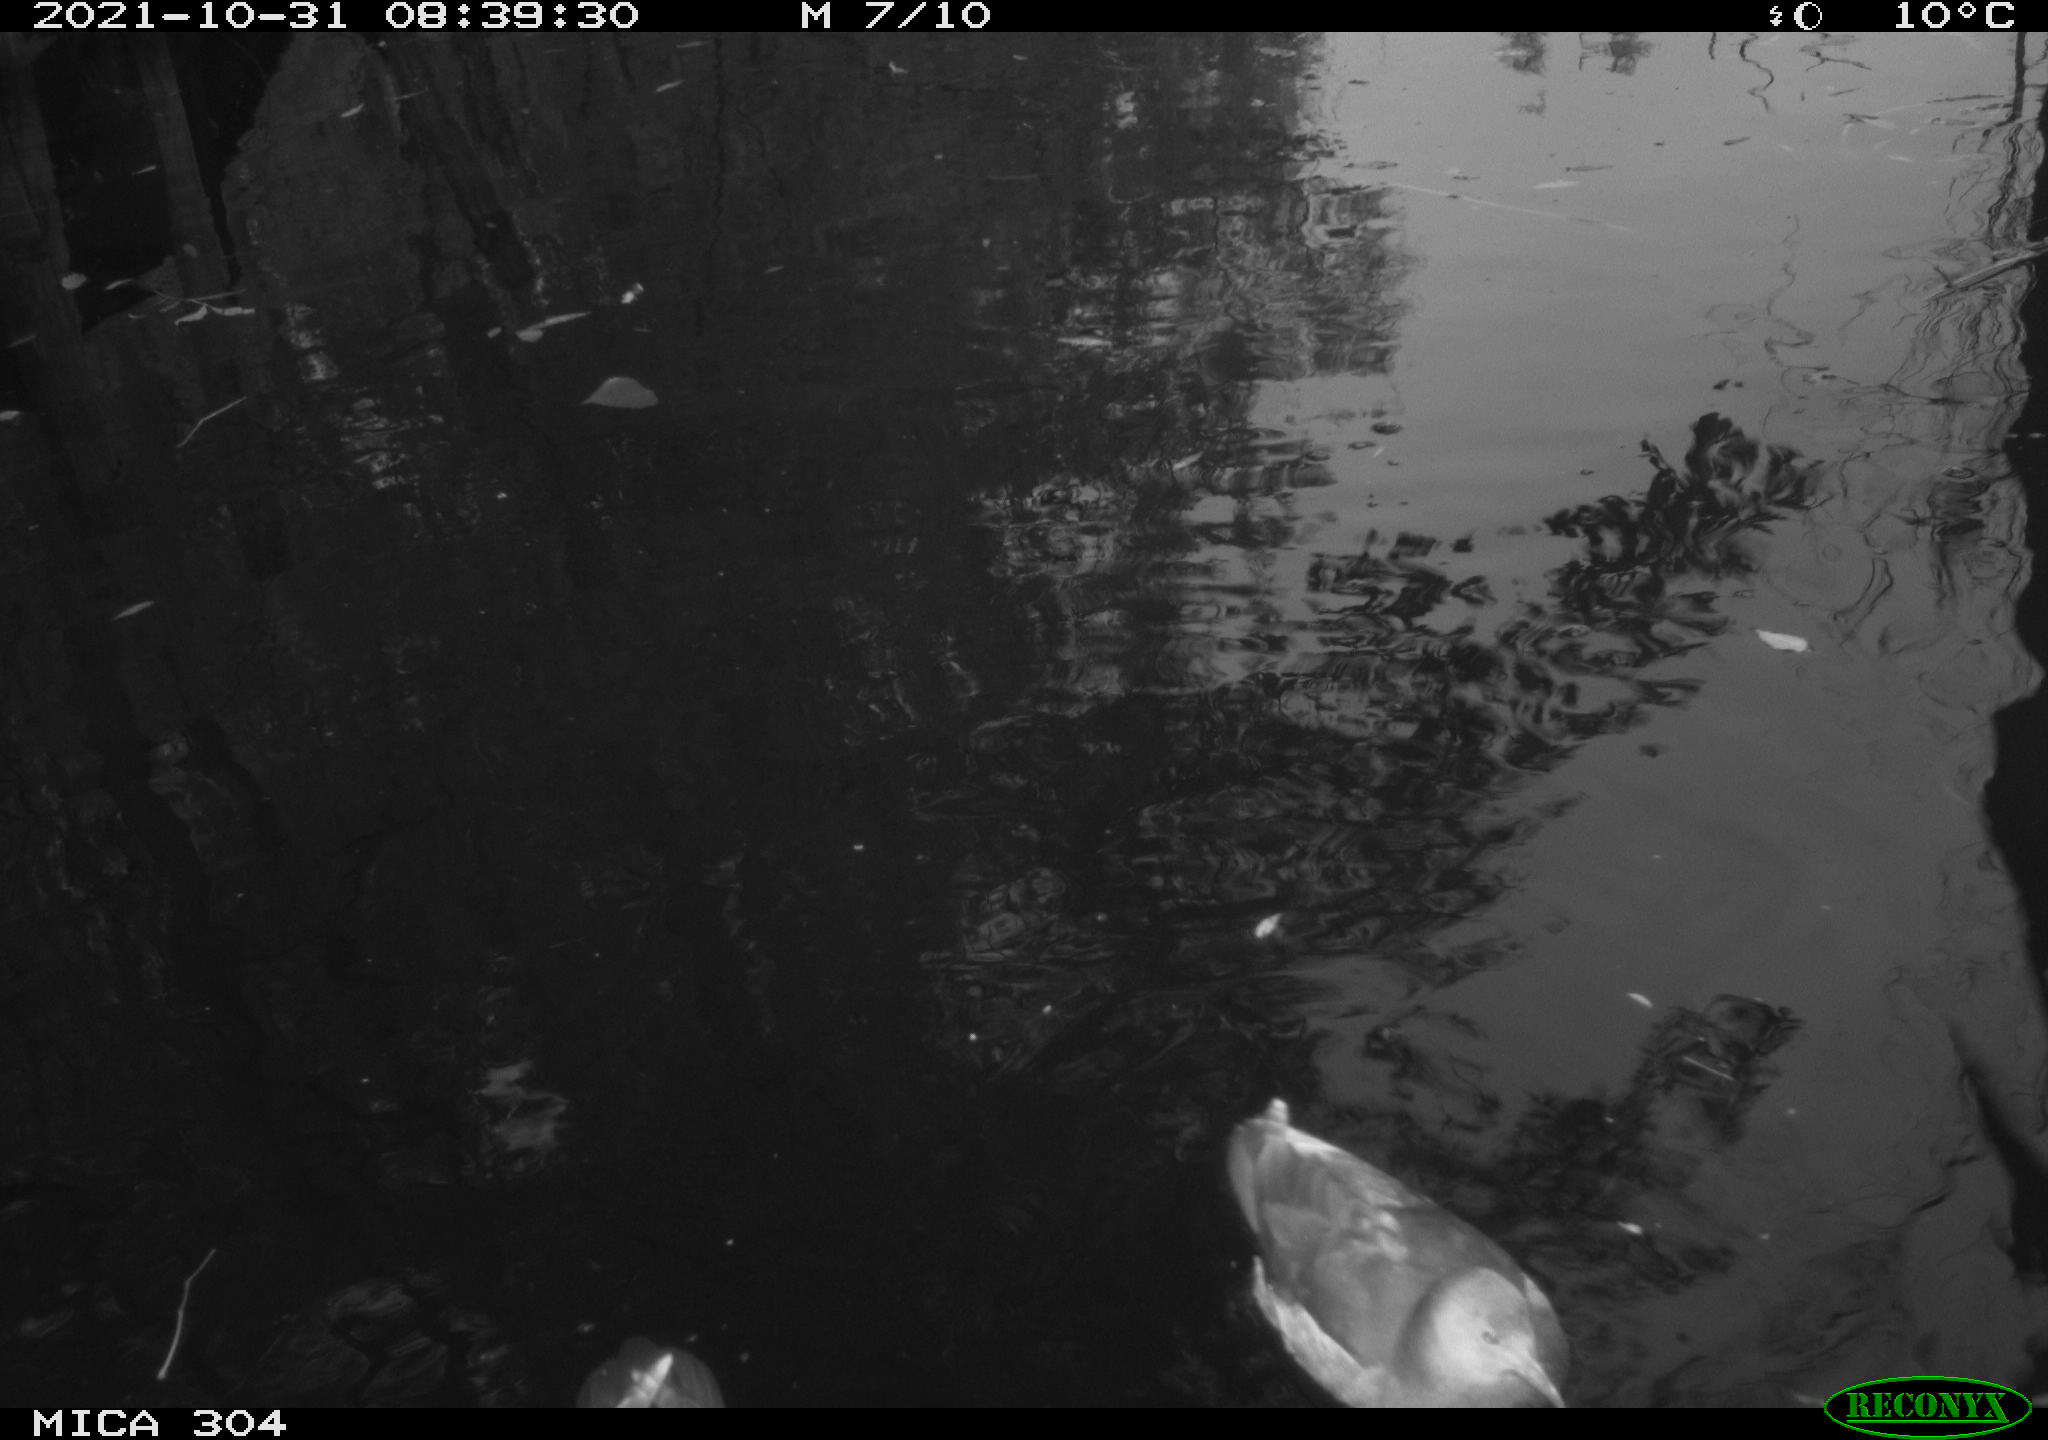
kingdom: Animalia
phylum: Chordata
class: Aves
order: Anseriformes
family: Anatidae
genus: Anas
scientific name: Anas platyrhynchos
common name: Mallard
